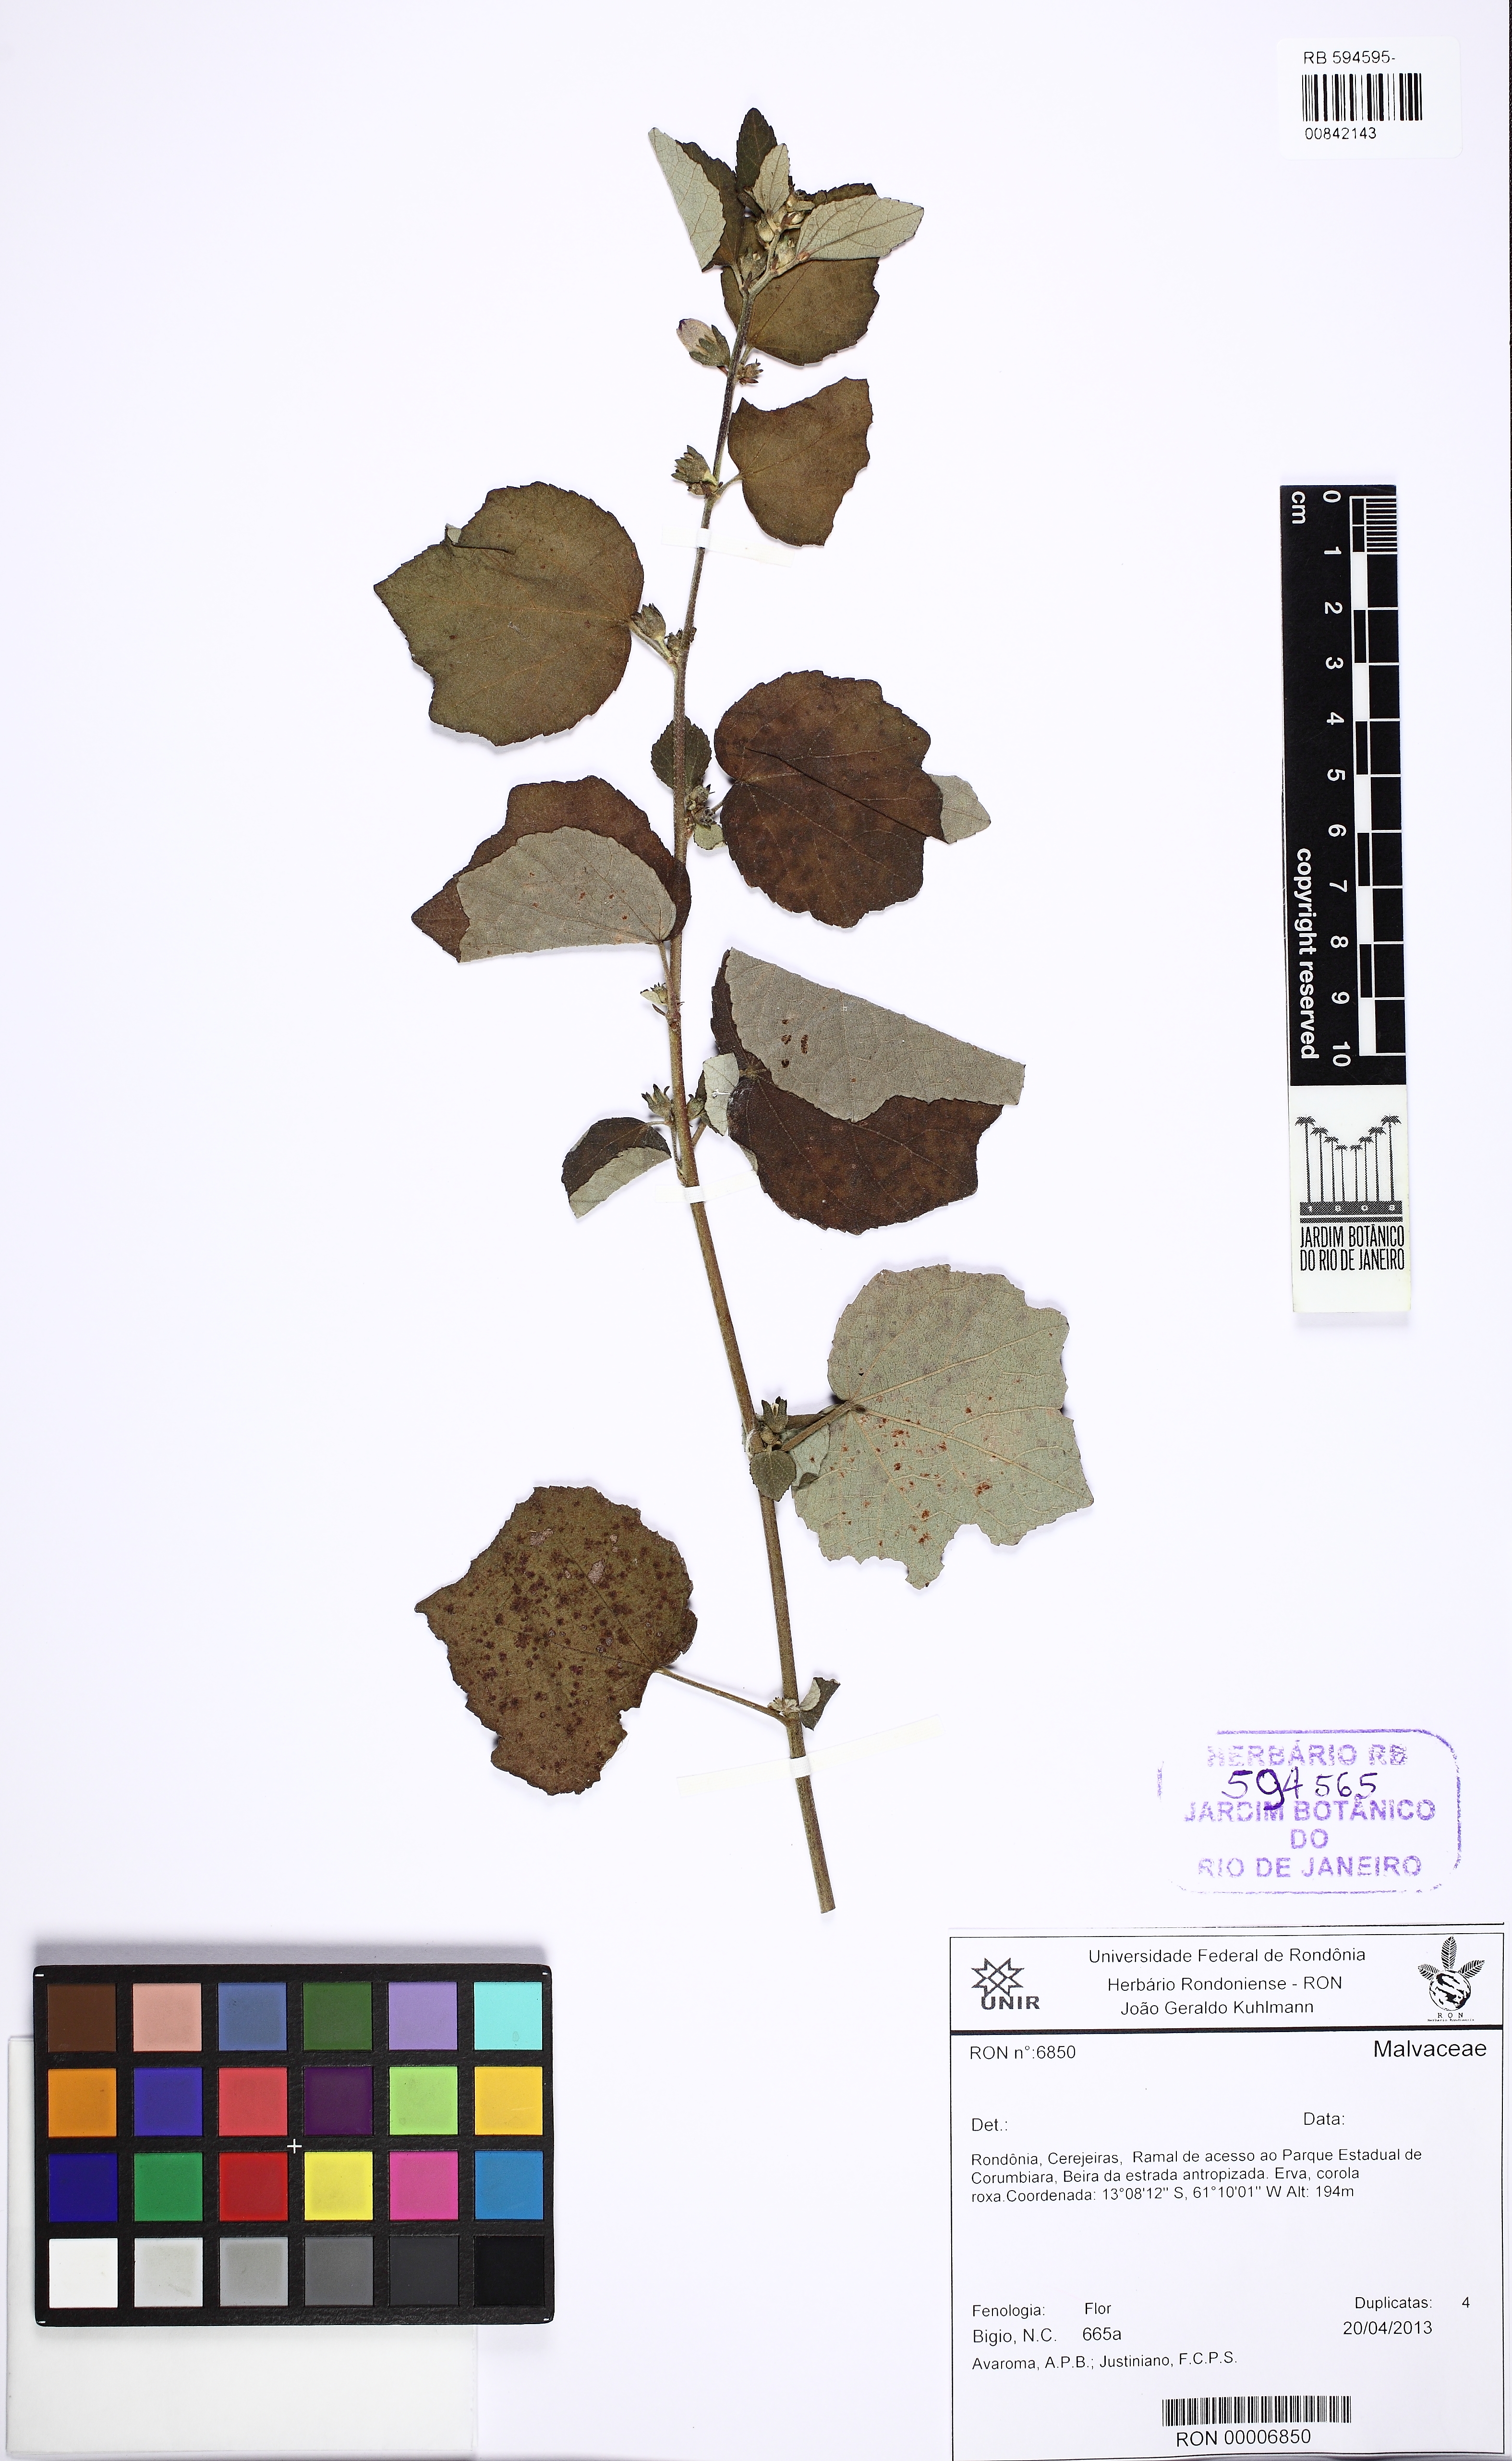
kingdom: Plantae
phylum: Tracheophyta
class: Magnoliopsida
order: Malvales
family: Malvaceae
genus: Urena
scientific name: Urena lobata
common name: Caesarweed
